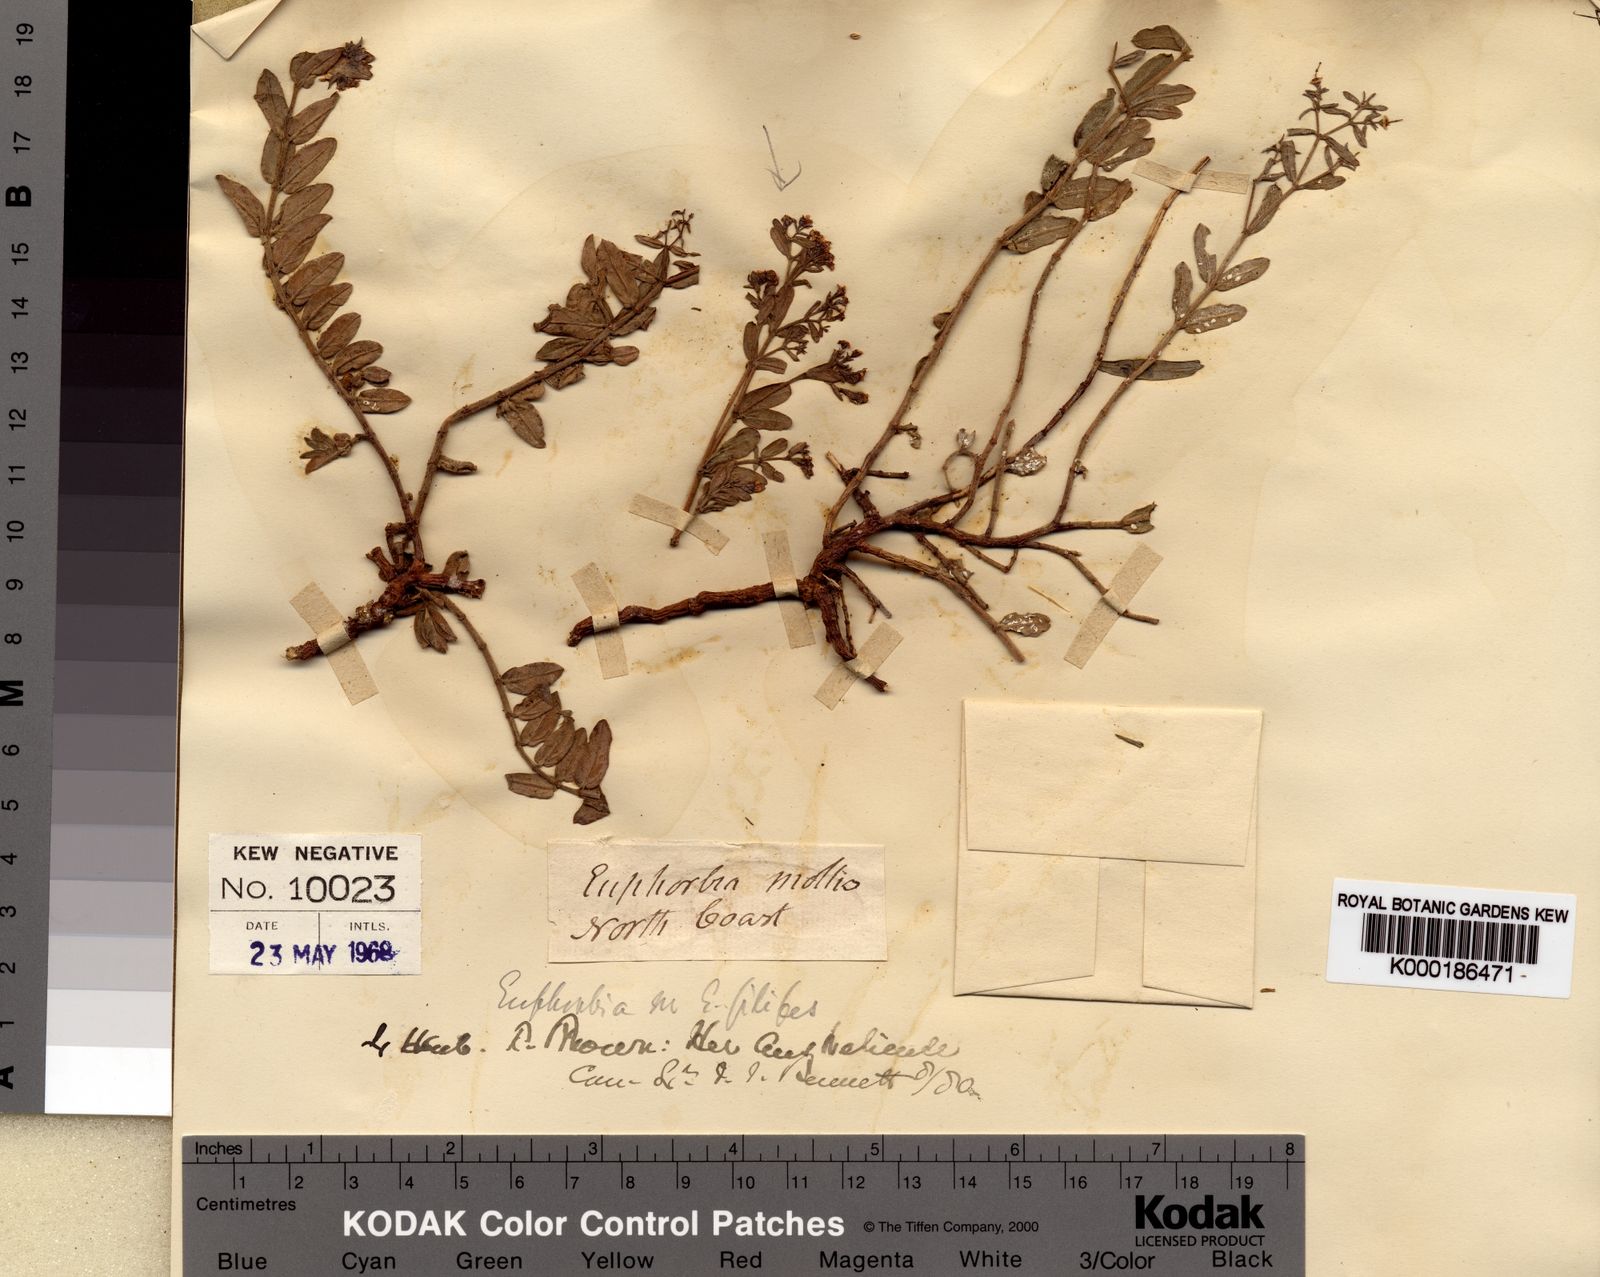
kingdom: Plantae
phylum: Tracheophyta
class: Magnoliopsida
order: Malpighiales
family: Euphorbiaceae
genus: Euphorbia
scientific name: Euphorbia mitchelliana
